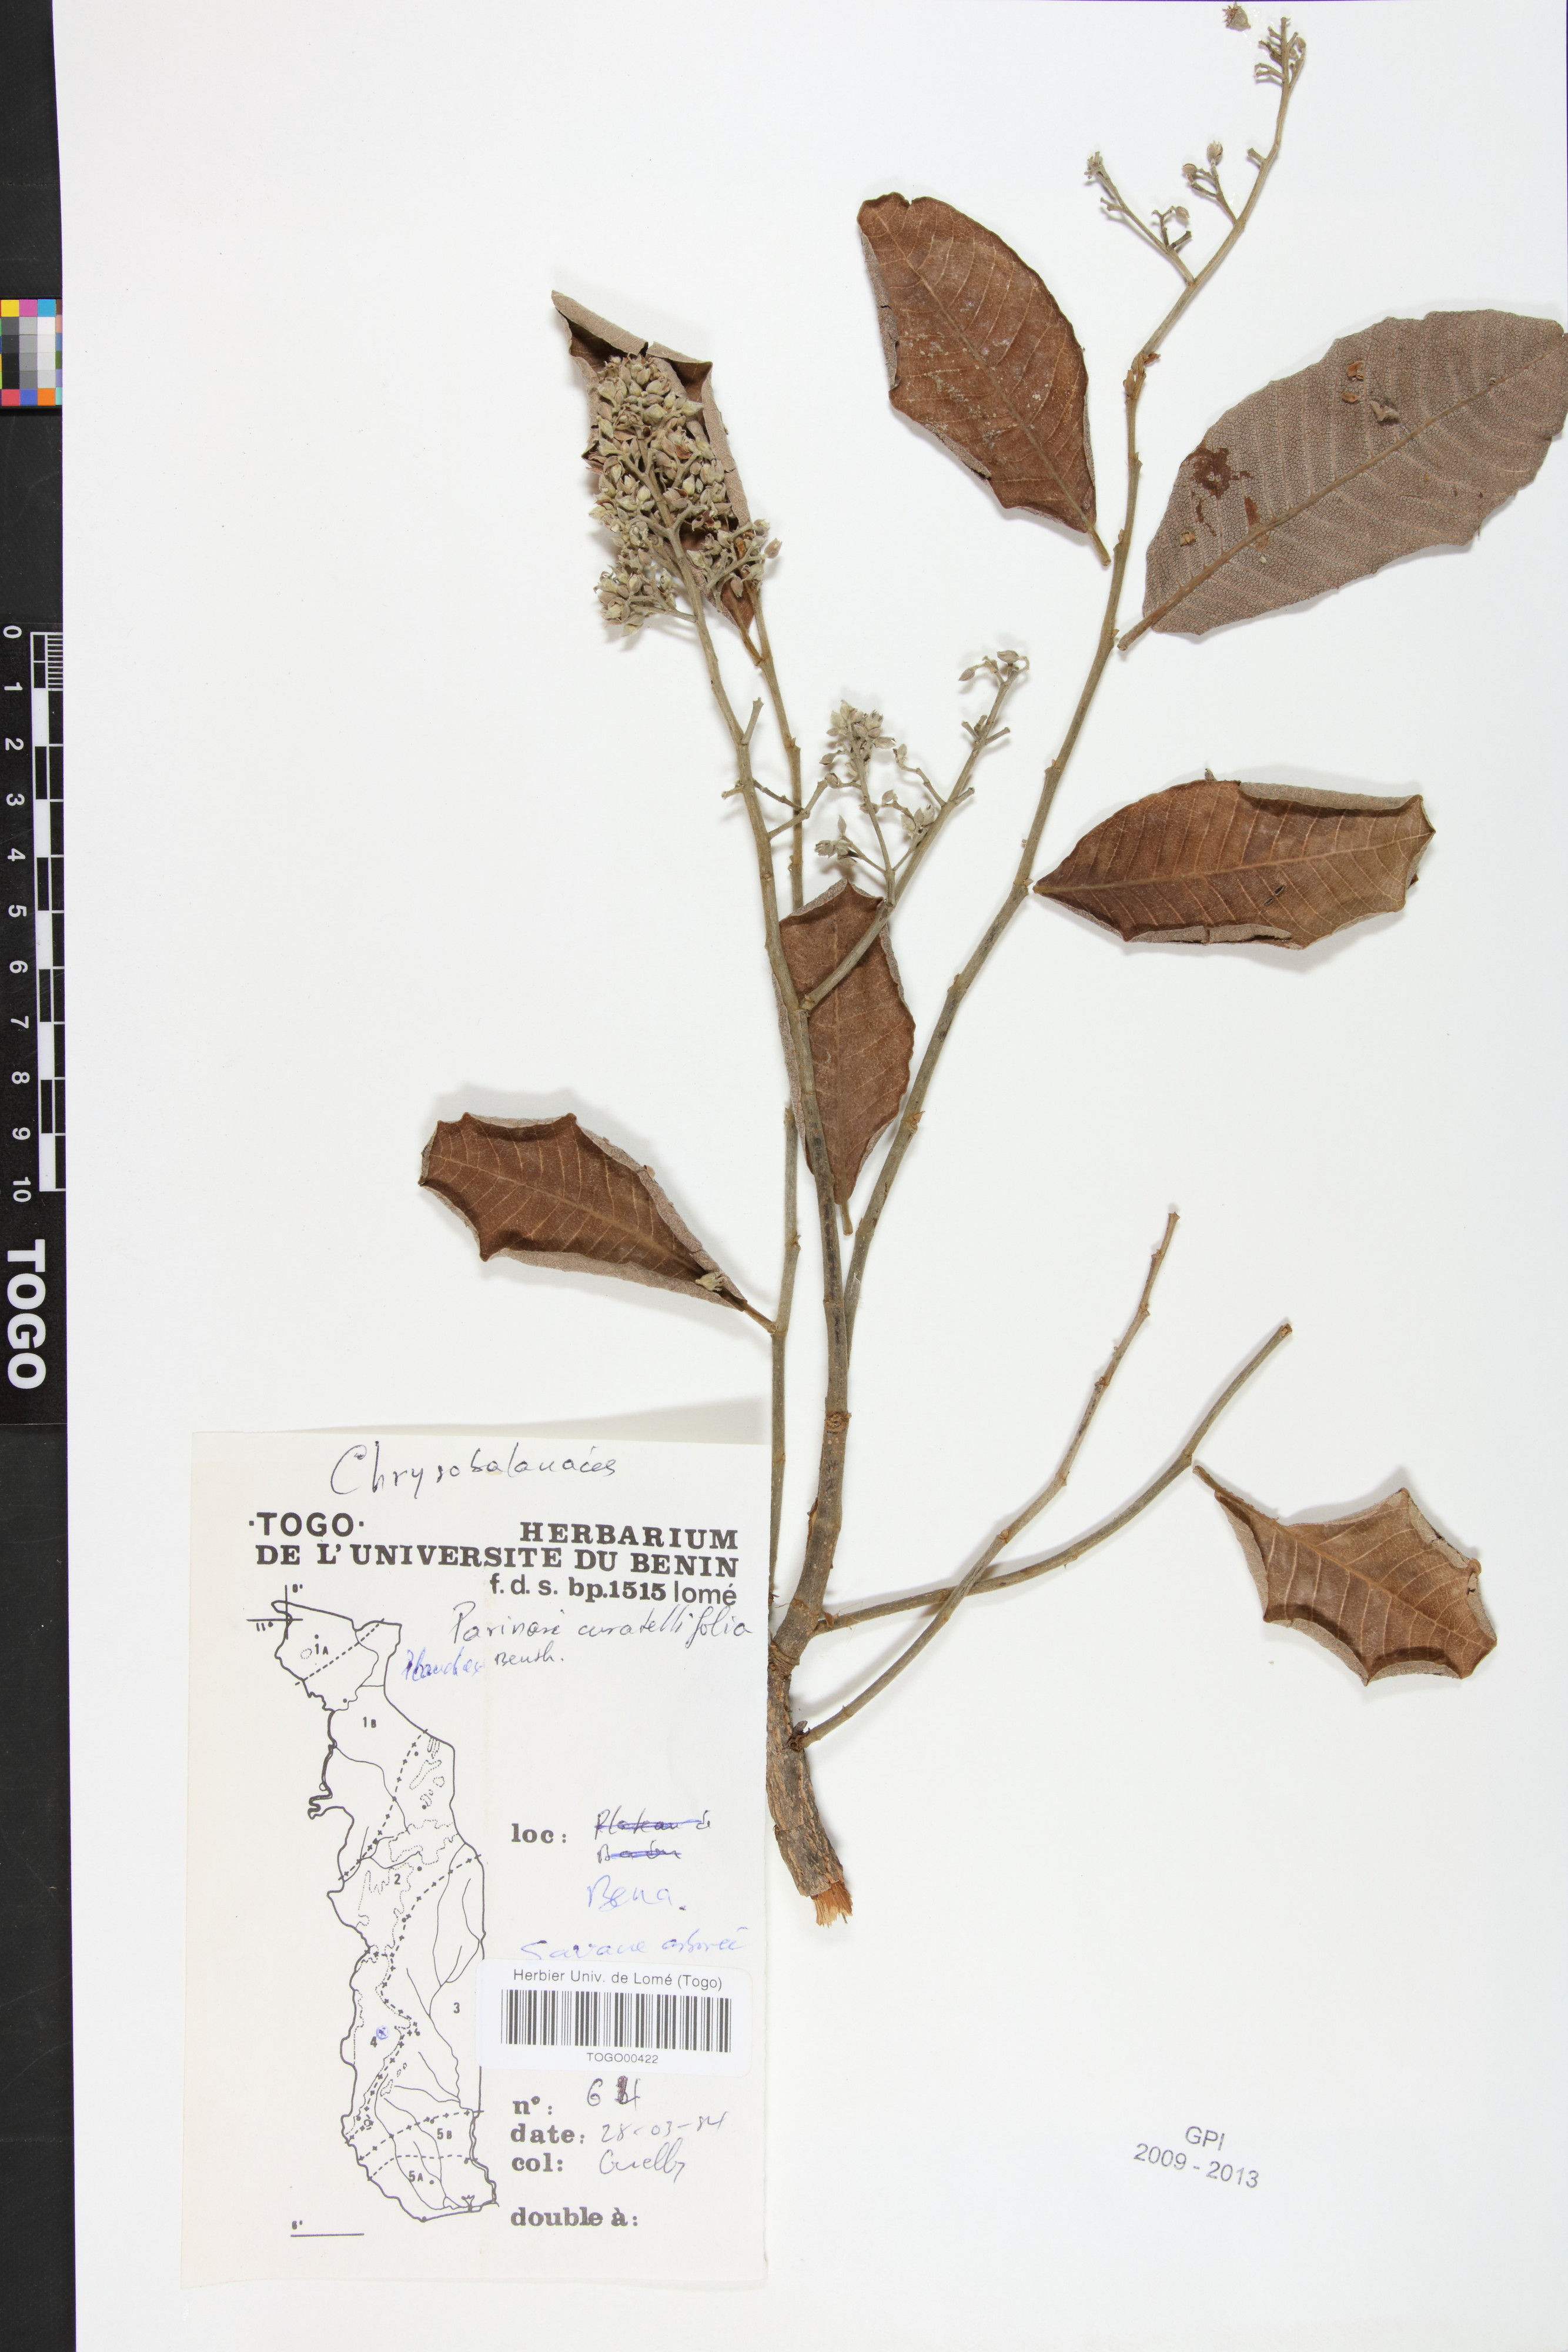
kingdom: Plantae
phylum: Tracheophyta
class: Magnoliopsida
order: Malpighiales
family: Chrysobalanaceae
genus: Parinari
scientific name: Parinari curatellifolia
